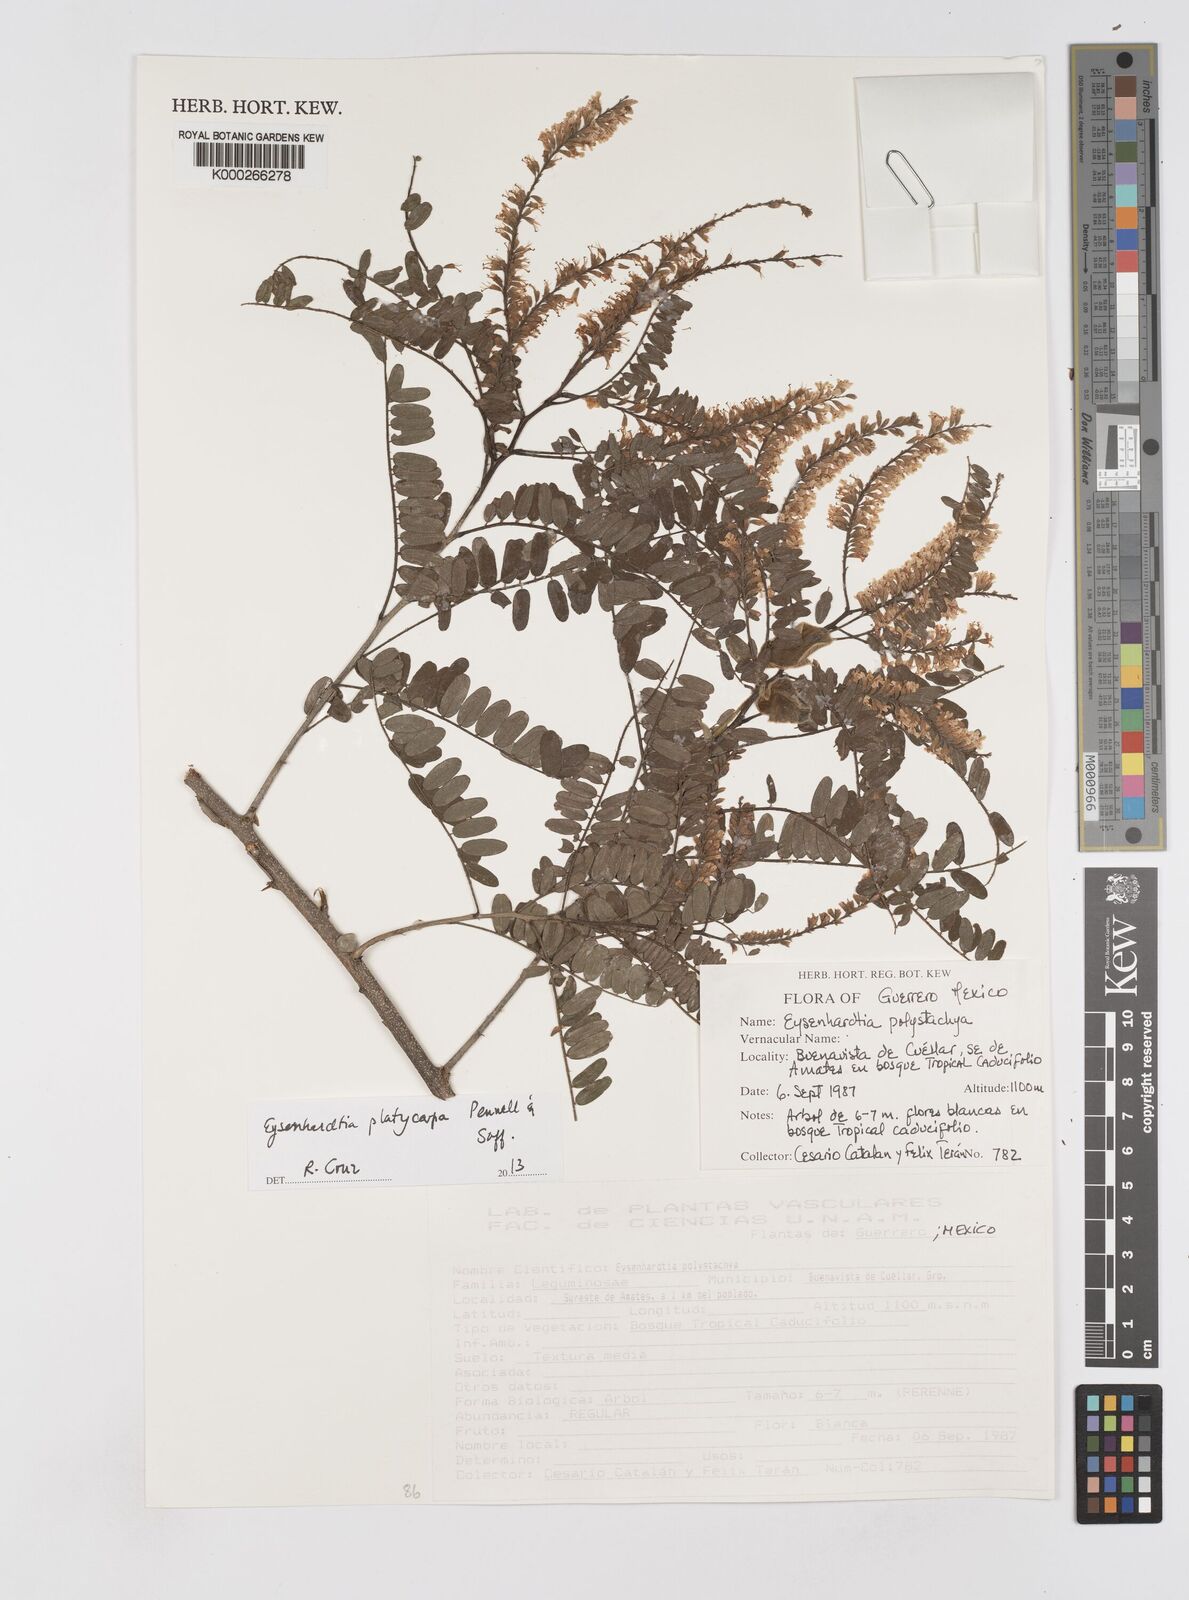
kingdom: Plantae
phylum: Tracheophyta
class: Magnoliopsida
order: Fabales
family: Fabaceae
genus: Eysenhardtia
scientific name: Eysenhardtia platycarpa
